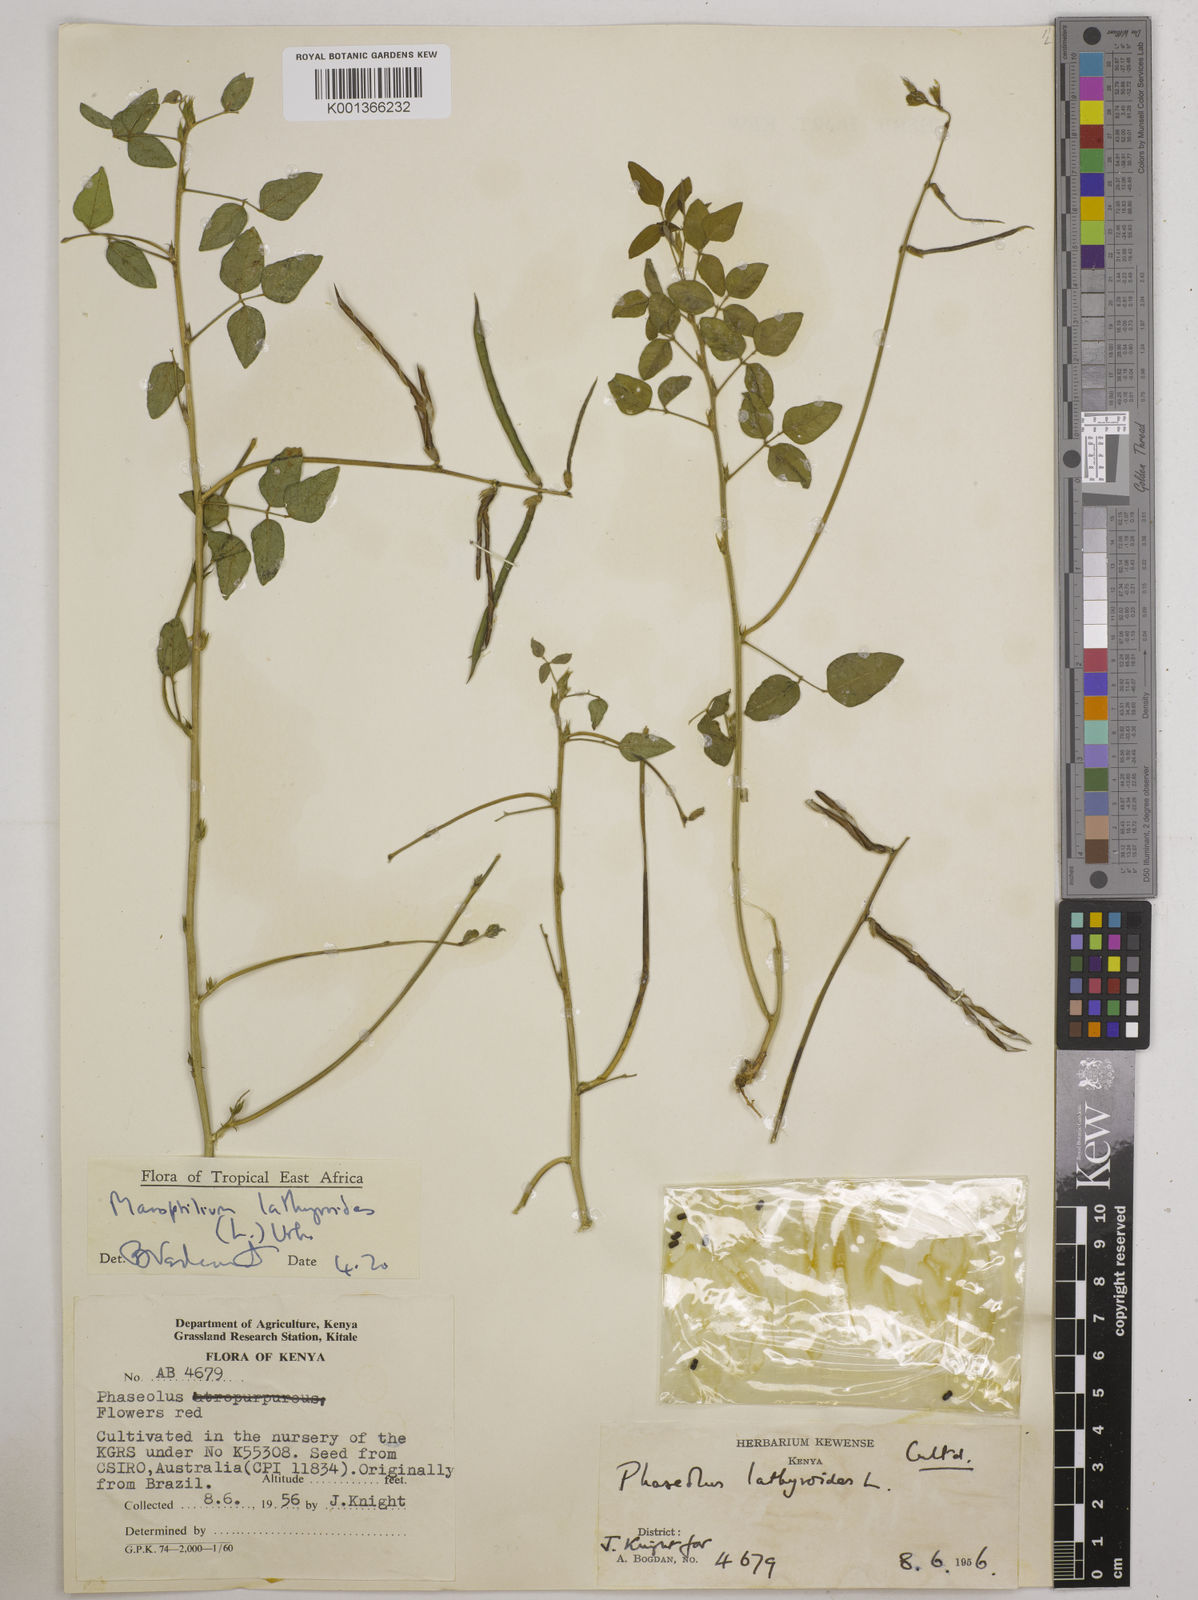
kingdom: Plantae
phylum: Tracheophyta
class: Magnoliopsida
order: Fabales
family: Fabaceae
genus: Macroptilium
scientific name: Macroptilium lathyroides
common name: Wild bushbean
